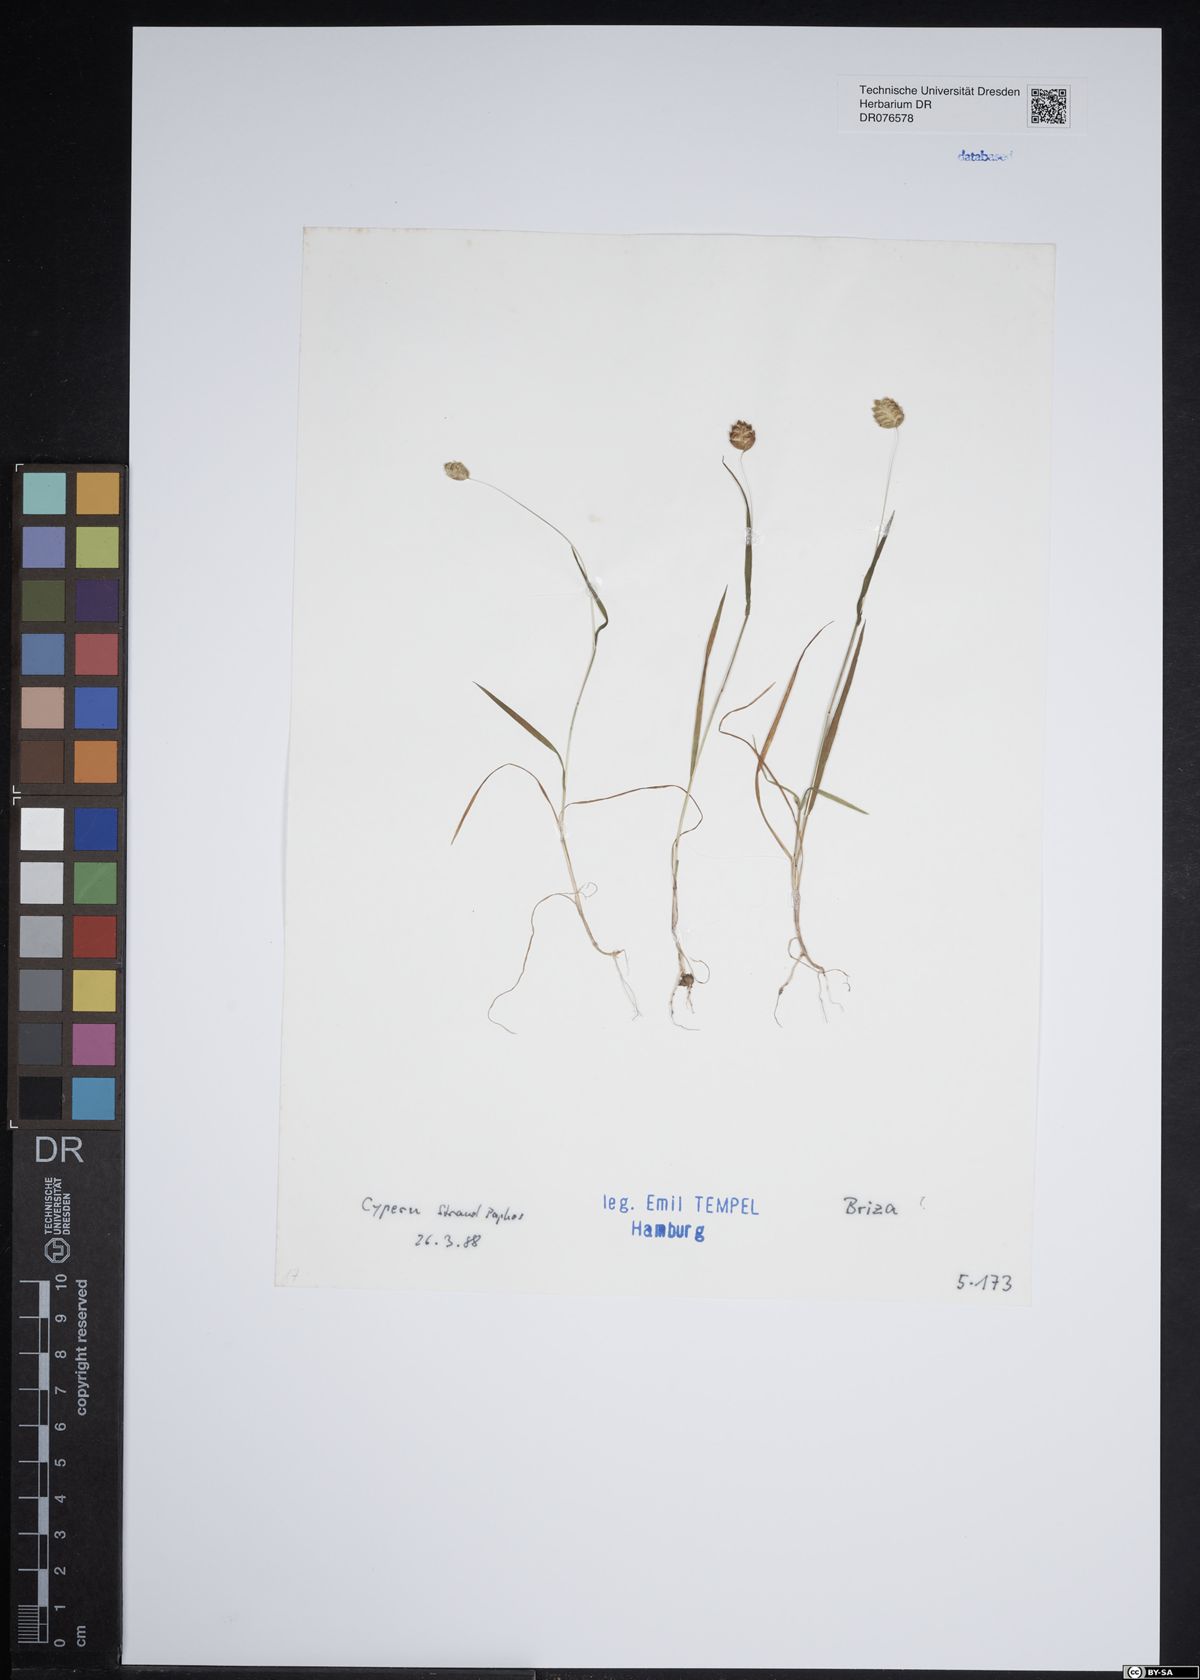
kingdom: Plantae
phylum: Tracheophyta
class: Liliopsida
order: Poales
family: Poaceae
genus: Briza
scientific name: Briza
